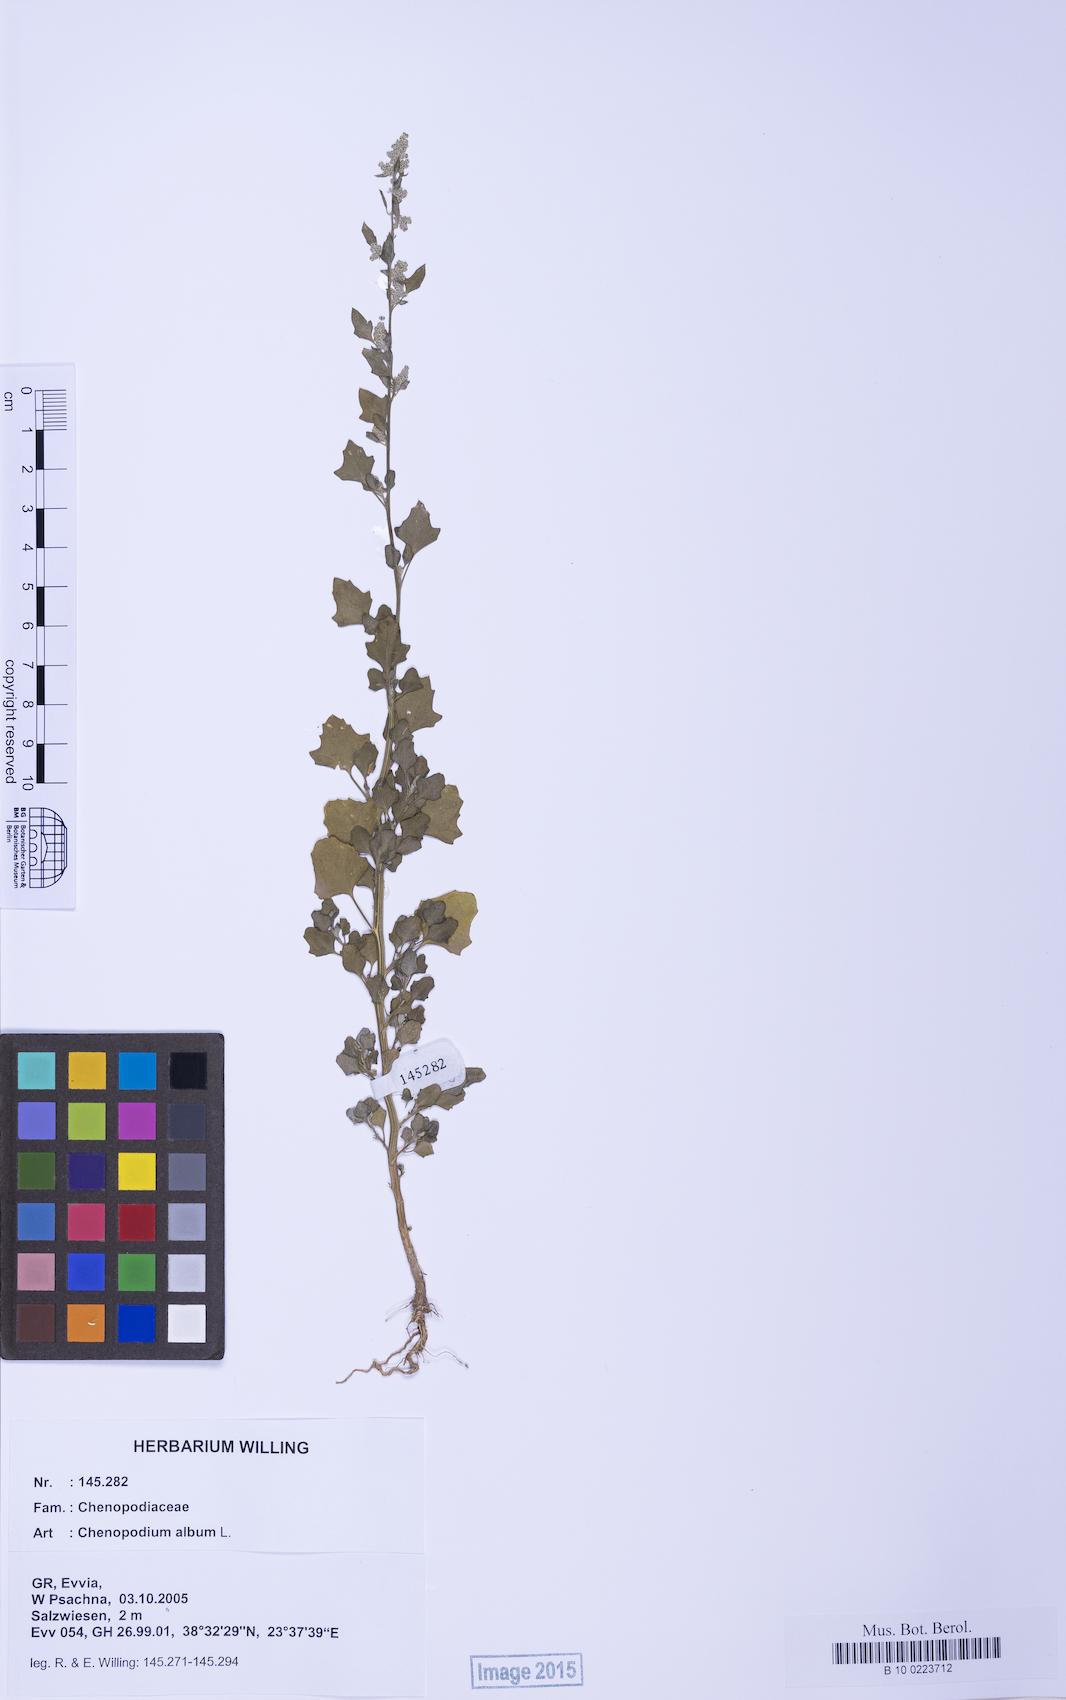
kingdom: Plantae
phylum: Tracheophyta
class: Magnoliopsida
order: Caryophyllales
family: Amaranthaceae
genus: Chenopodium
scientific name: Chenopodium opulifolium
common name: Grey goosefoot
